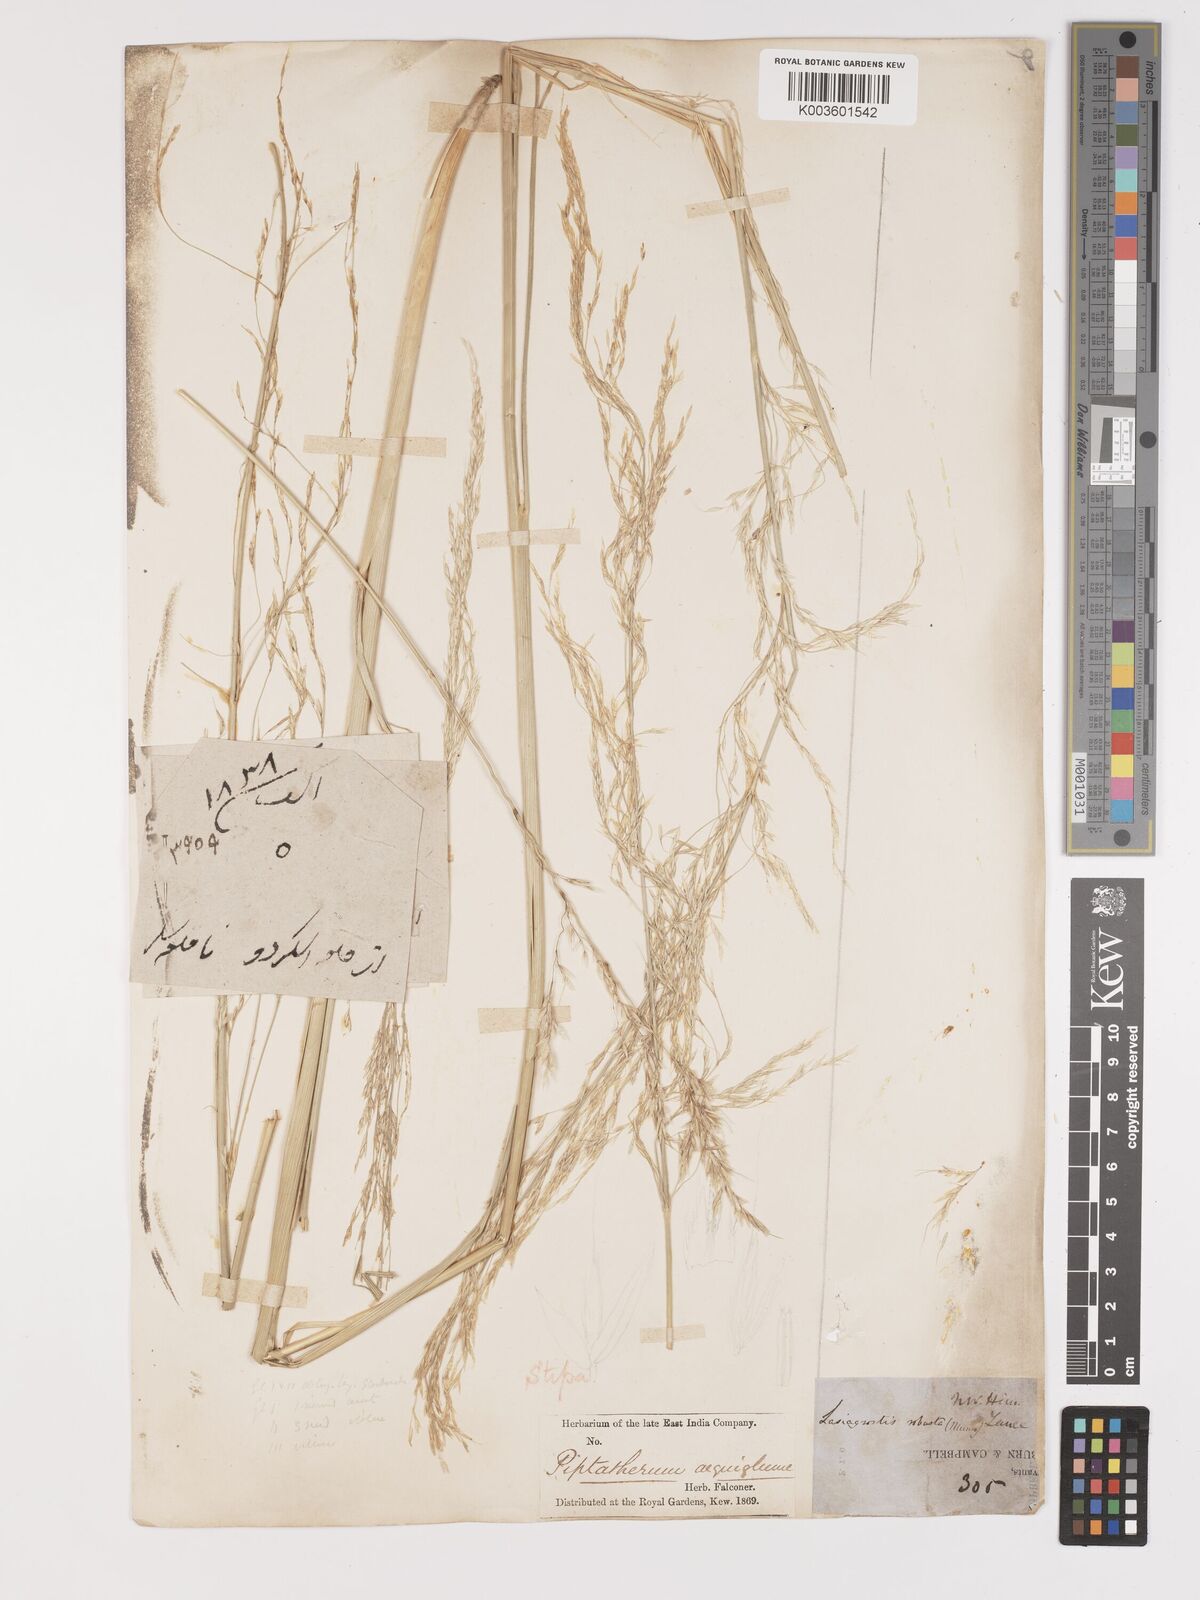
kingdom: Plantae
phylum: Tracheophyta
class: Liliopsida
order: Poales
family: Poaceae
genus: Neotrinia
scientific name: Neotrinia splendens
